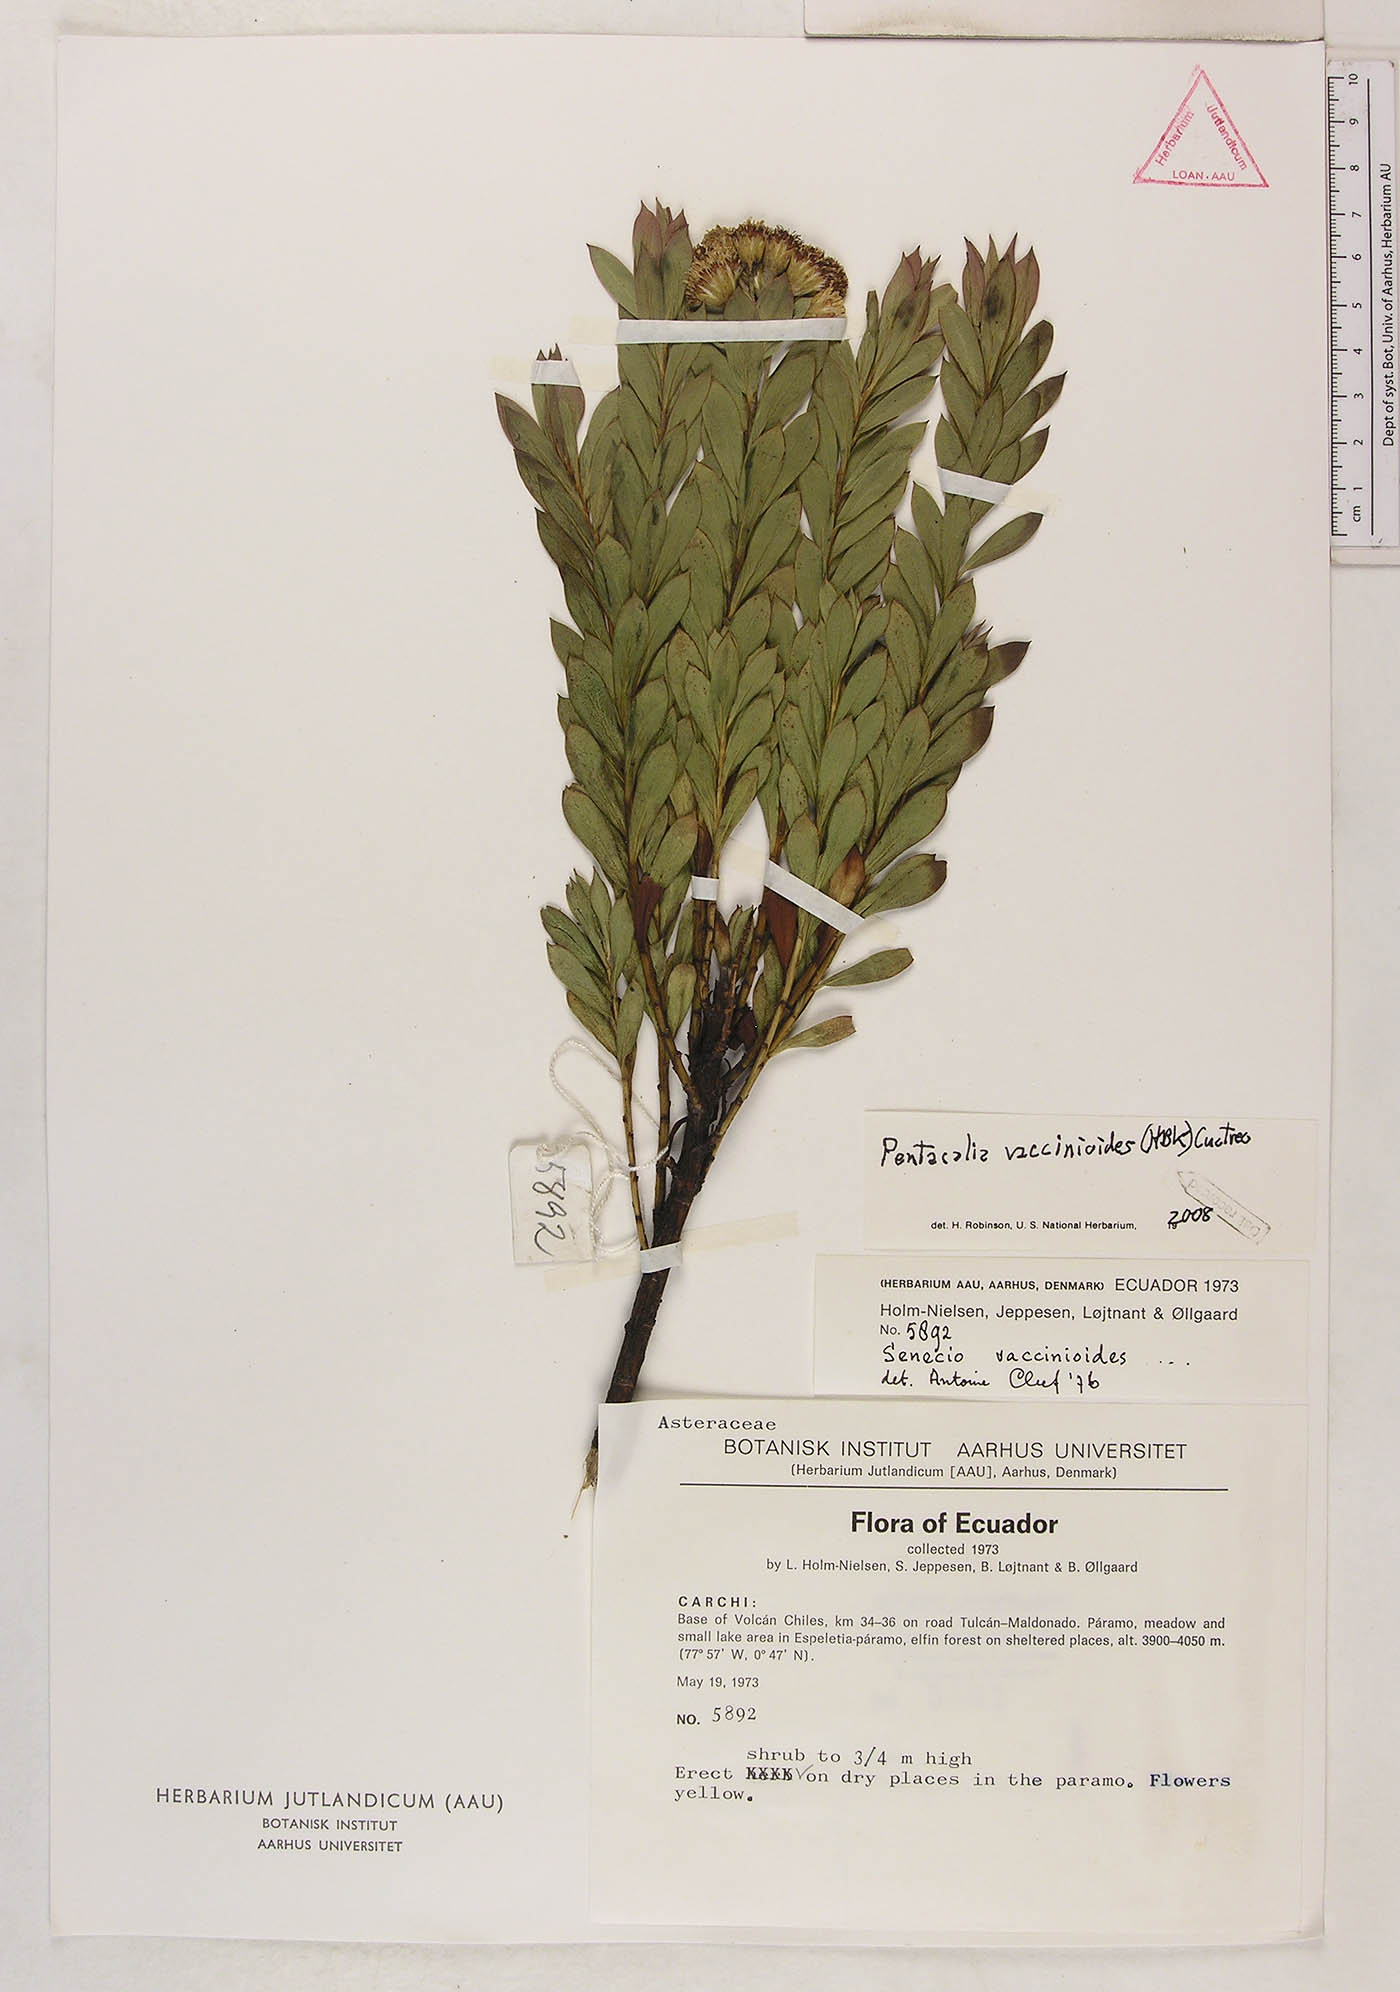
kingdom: Plantae
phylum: Tracheophyta
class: Magnoliopsida
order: Asterales
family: Asteraceae
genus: Monticalia
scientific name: Monticalia vaccinioides
